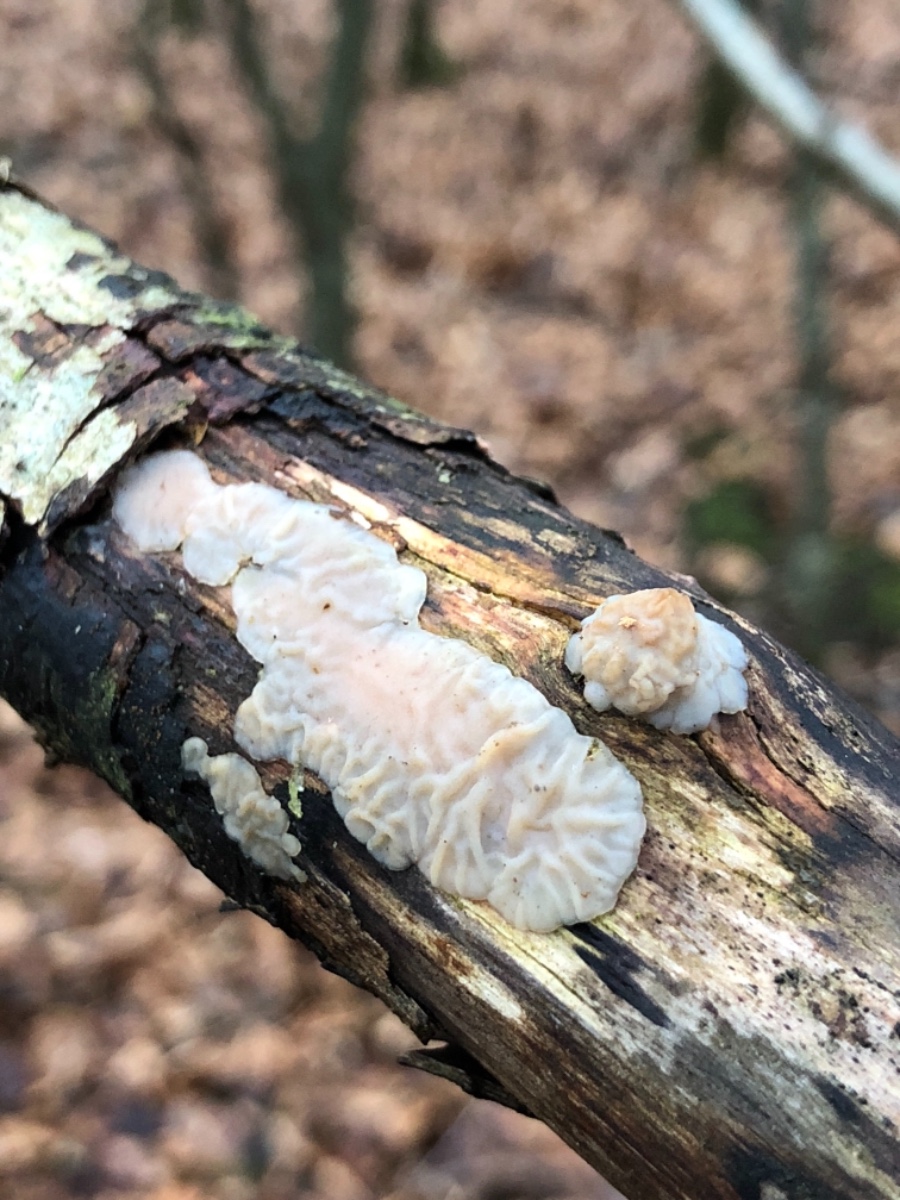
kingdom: Fungi
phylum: Basidiomycota
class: Agaricomycetes
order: Auriculariales
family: Auriculariaceae
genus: Exidia
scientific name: Exidia thuretiana
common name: hvidlig bævretop
